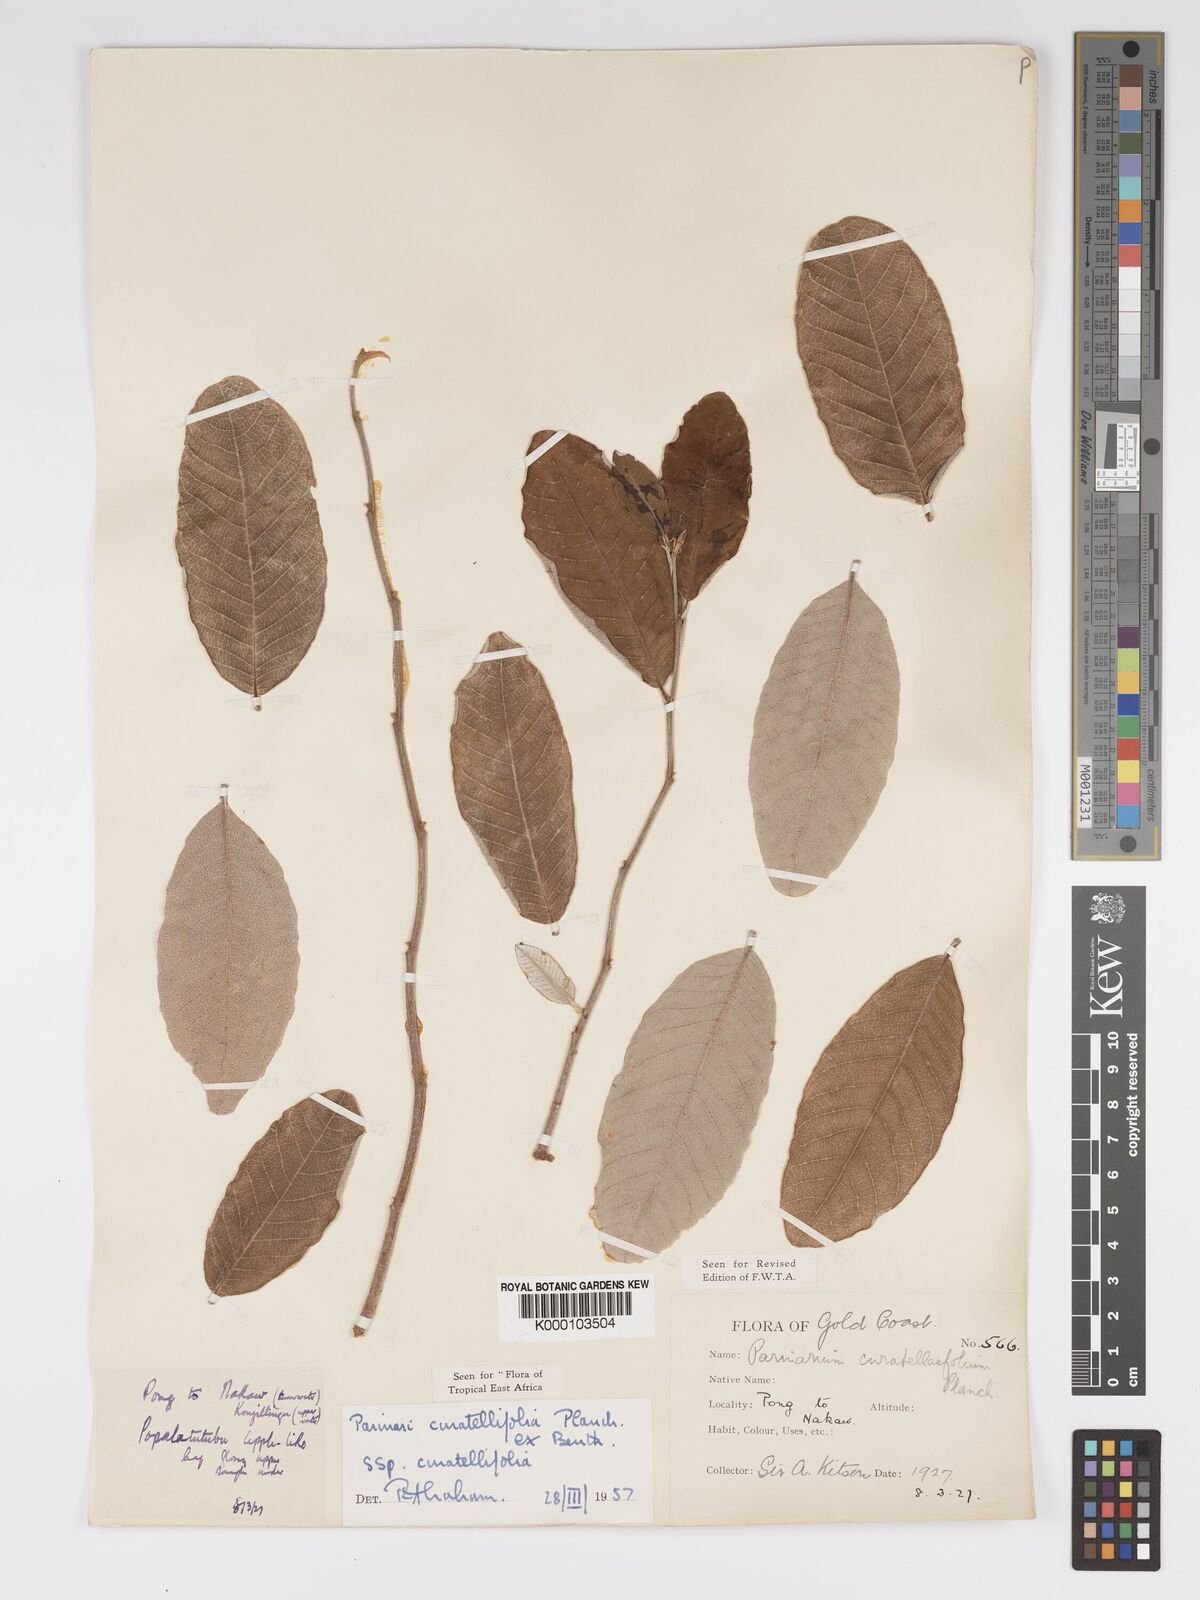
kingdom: Plantae
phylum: Tracheophyta
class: Magnoliopsida
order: Malpighiales
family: Chrysobalanaceae
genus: Parinari
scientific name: Parinari curatellifolia
